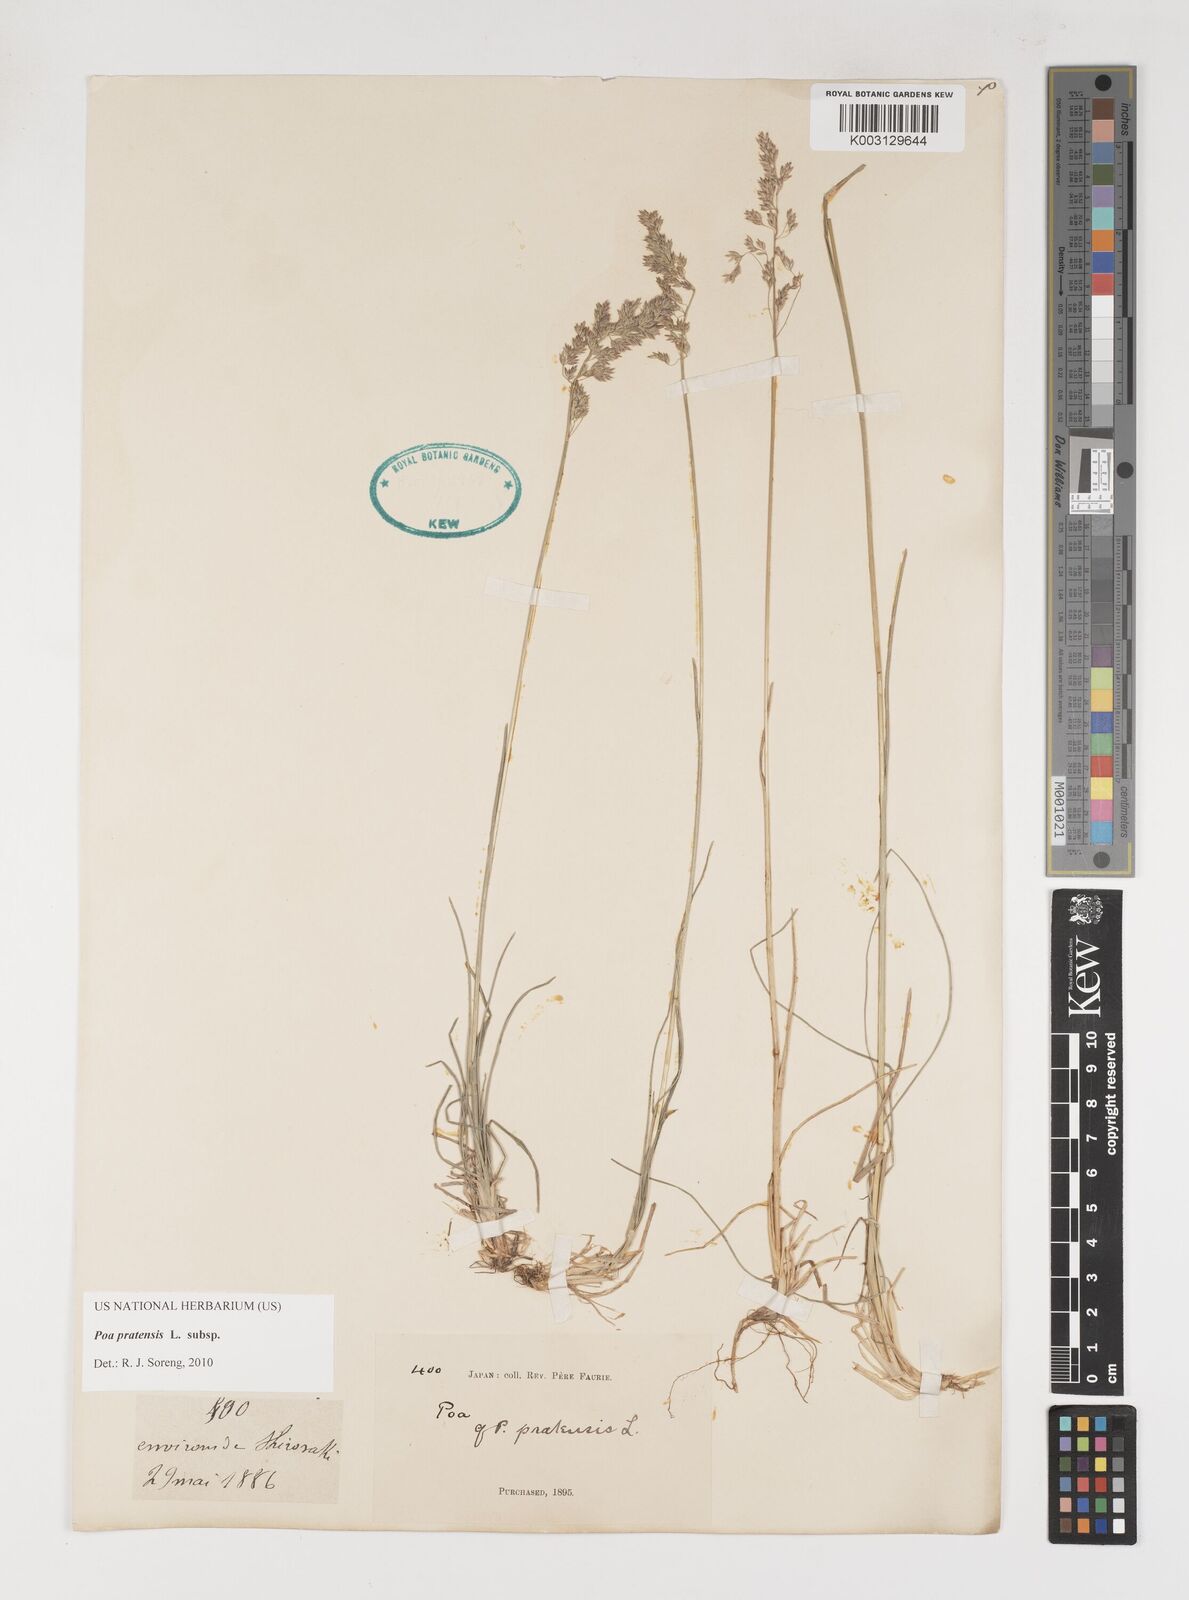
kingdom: Plantae
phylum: Tracheophyta
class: Liliopsida
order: Poales
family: Poaceae
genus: Poa
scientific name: Poa angustifolia
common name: Narrow-leaved meadow-grass
